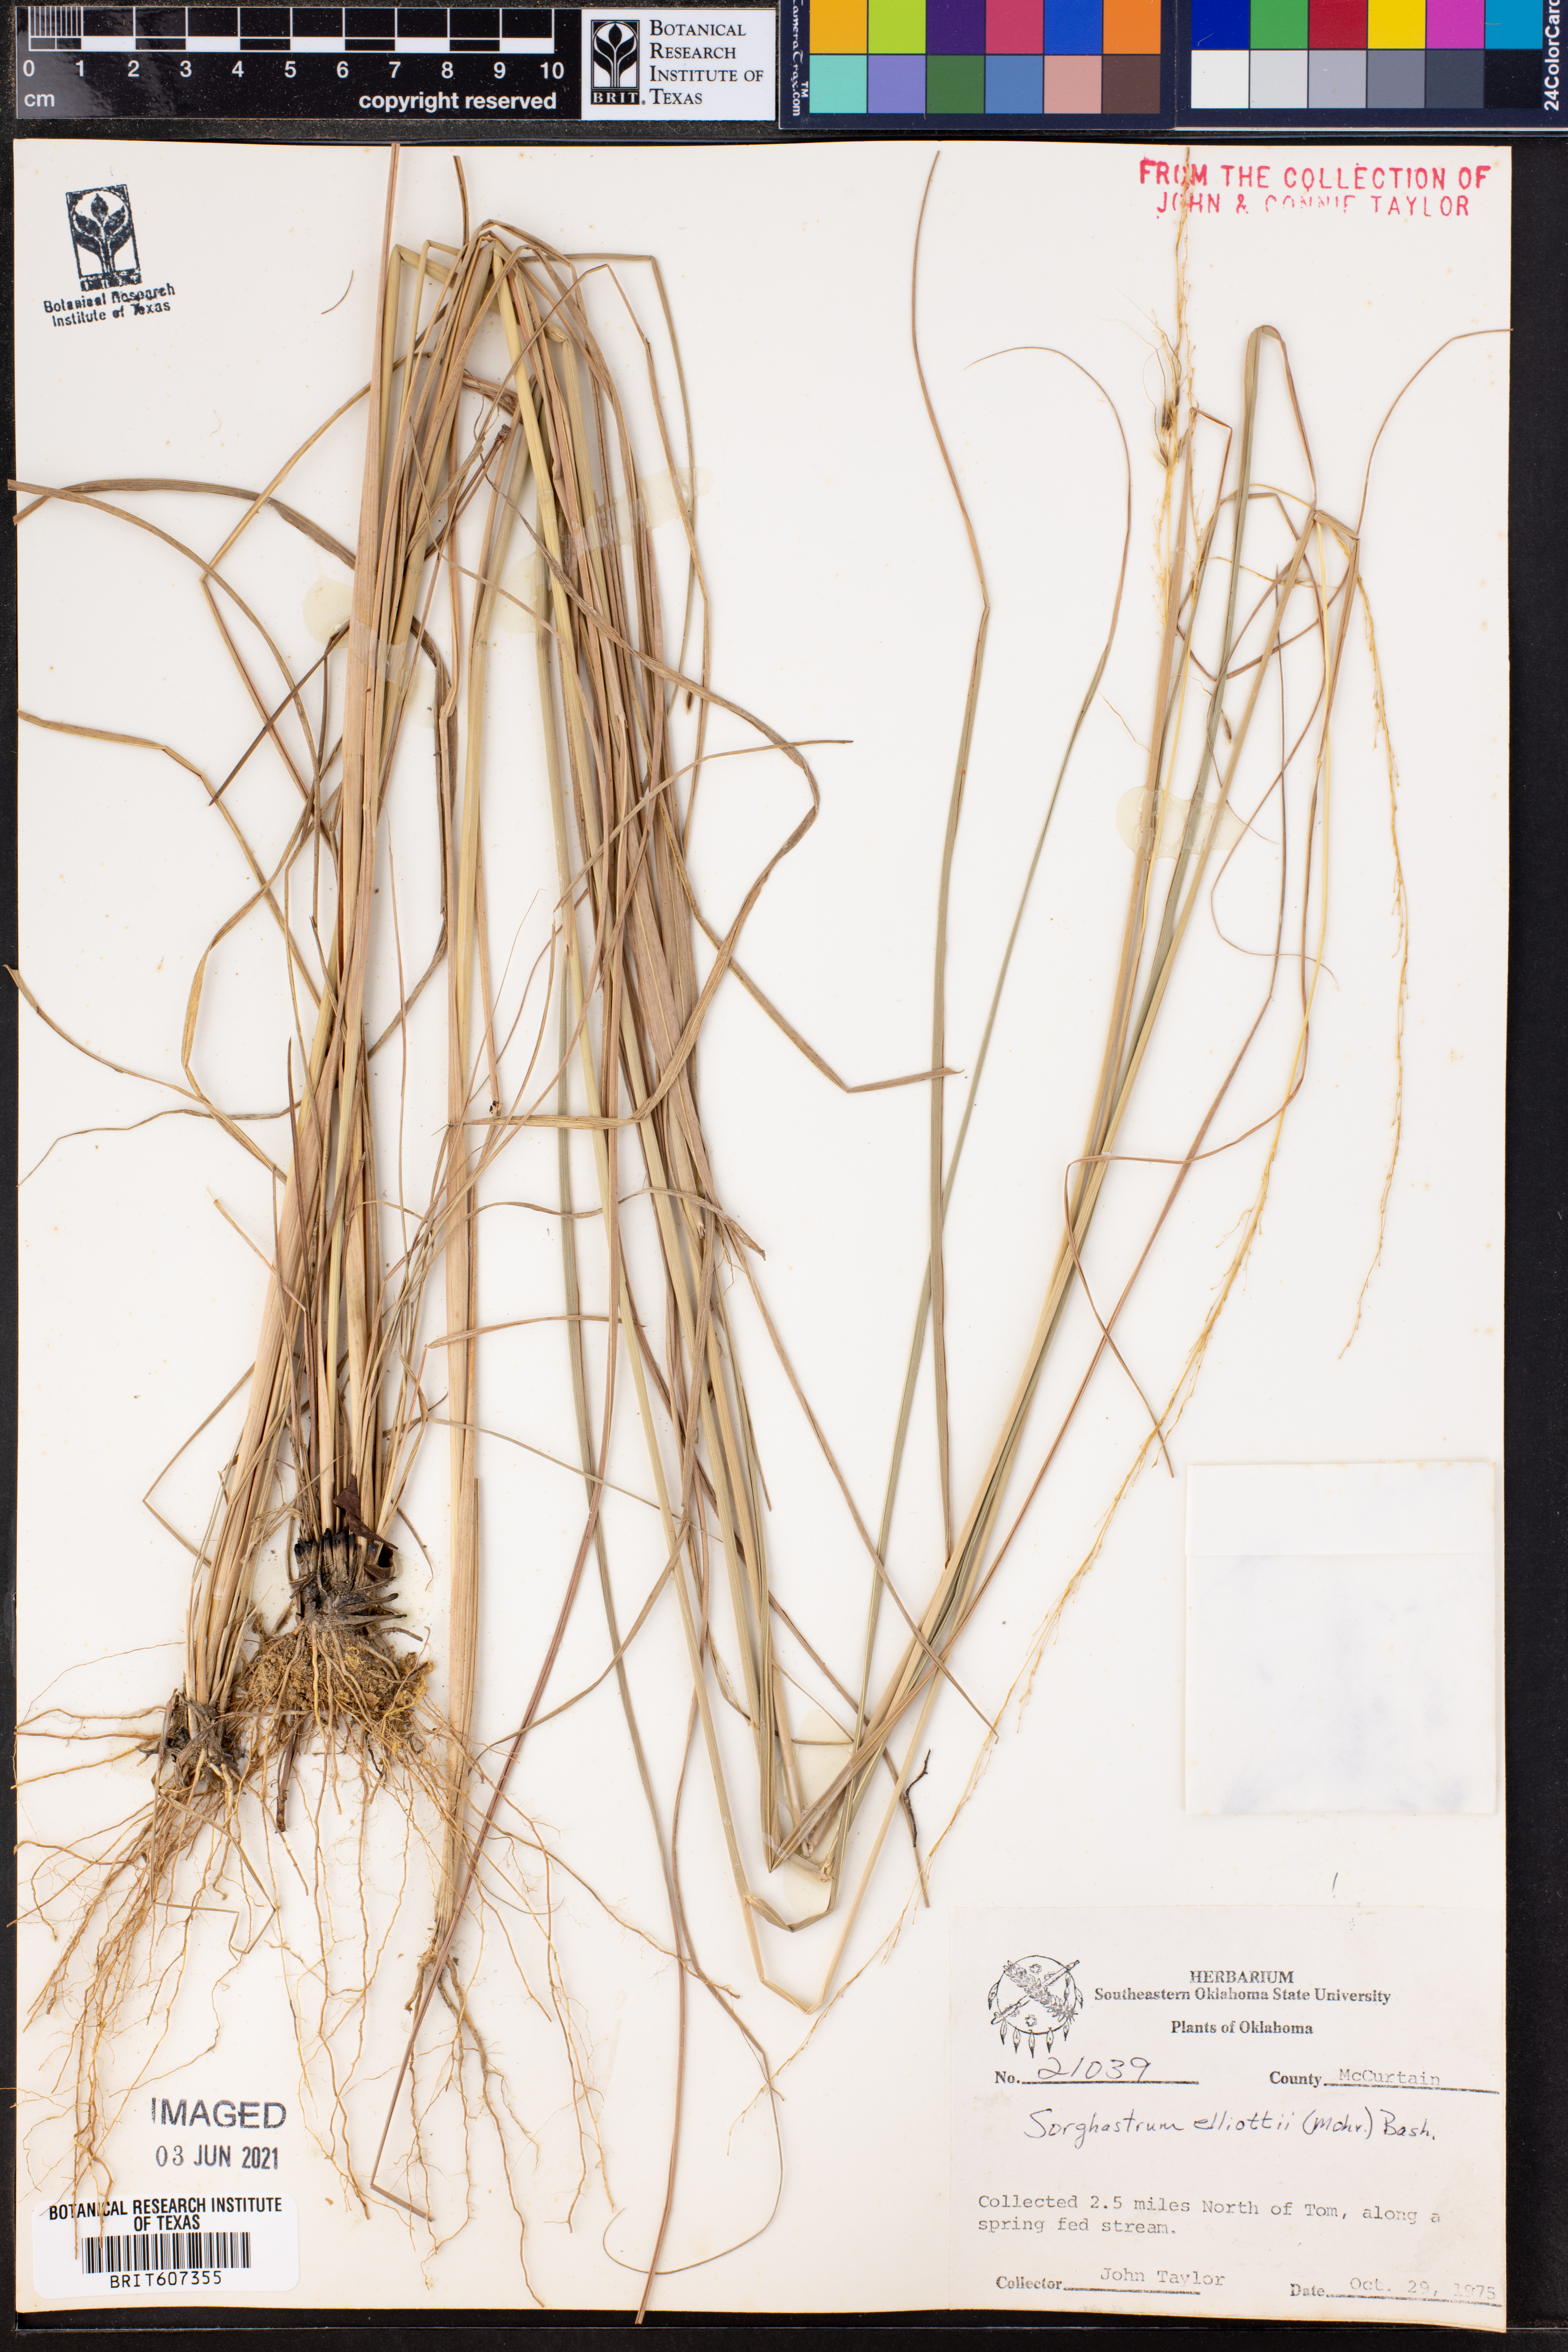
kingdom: Plantae
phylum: Tracheophyta
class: Liliopsida
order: Poales
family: Poaceae
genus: Sorghastrum
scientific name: Sorghastrum elliottii
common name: Slender indian grass
